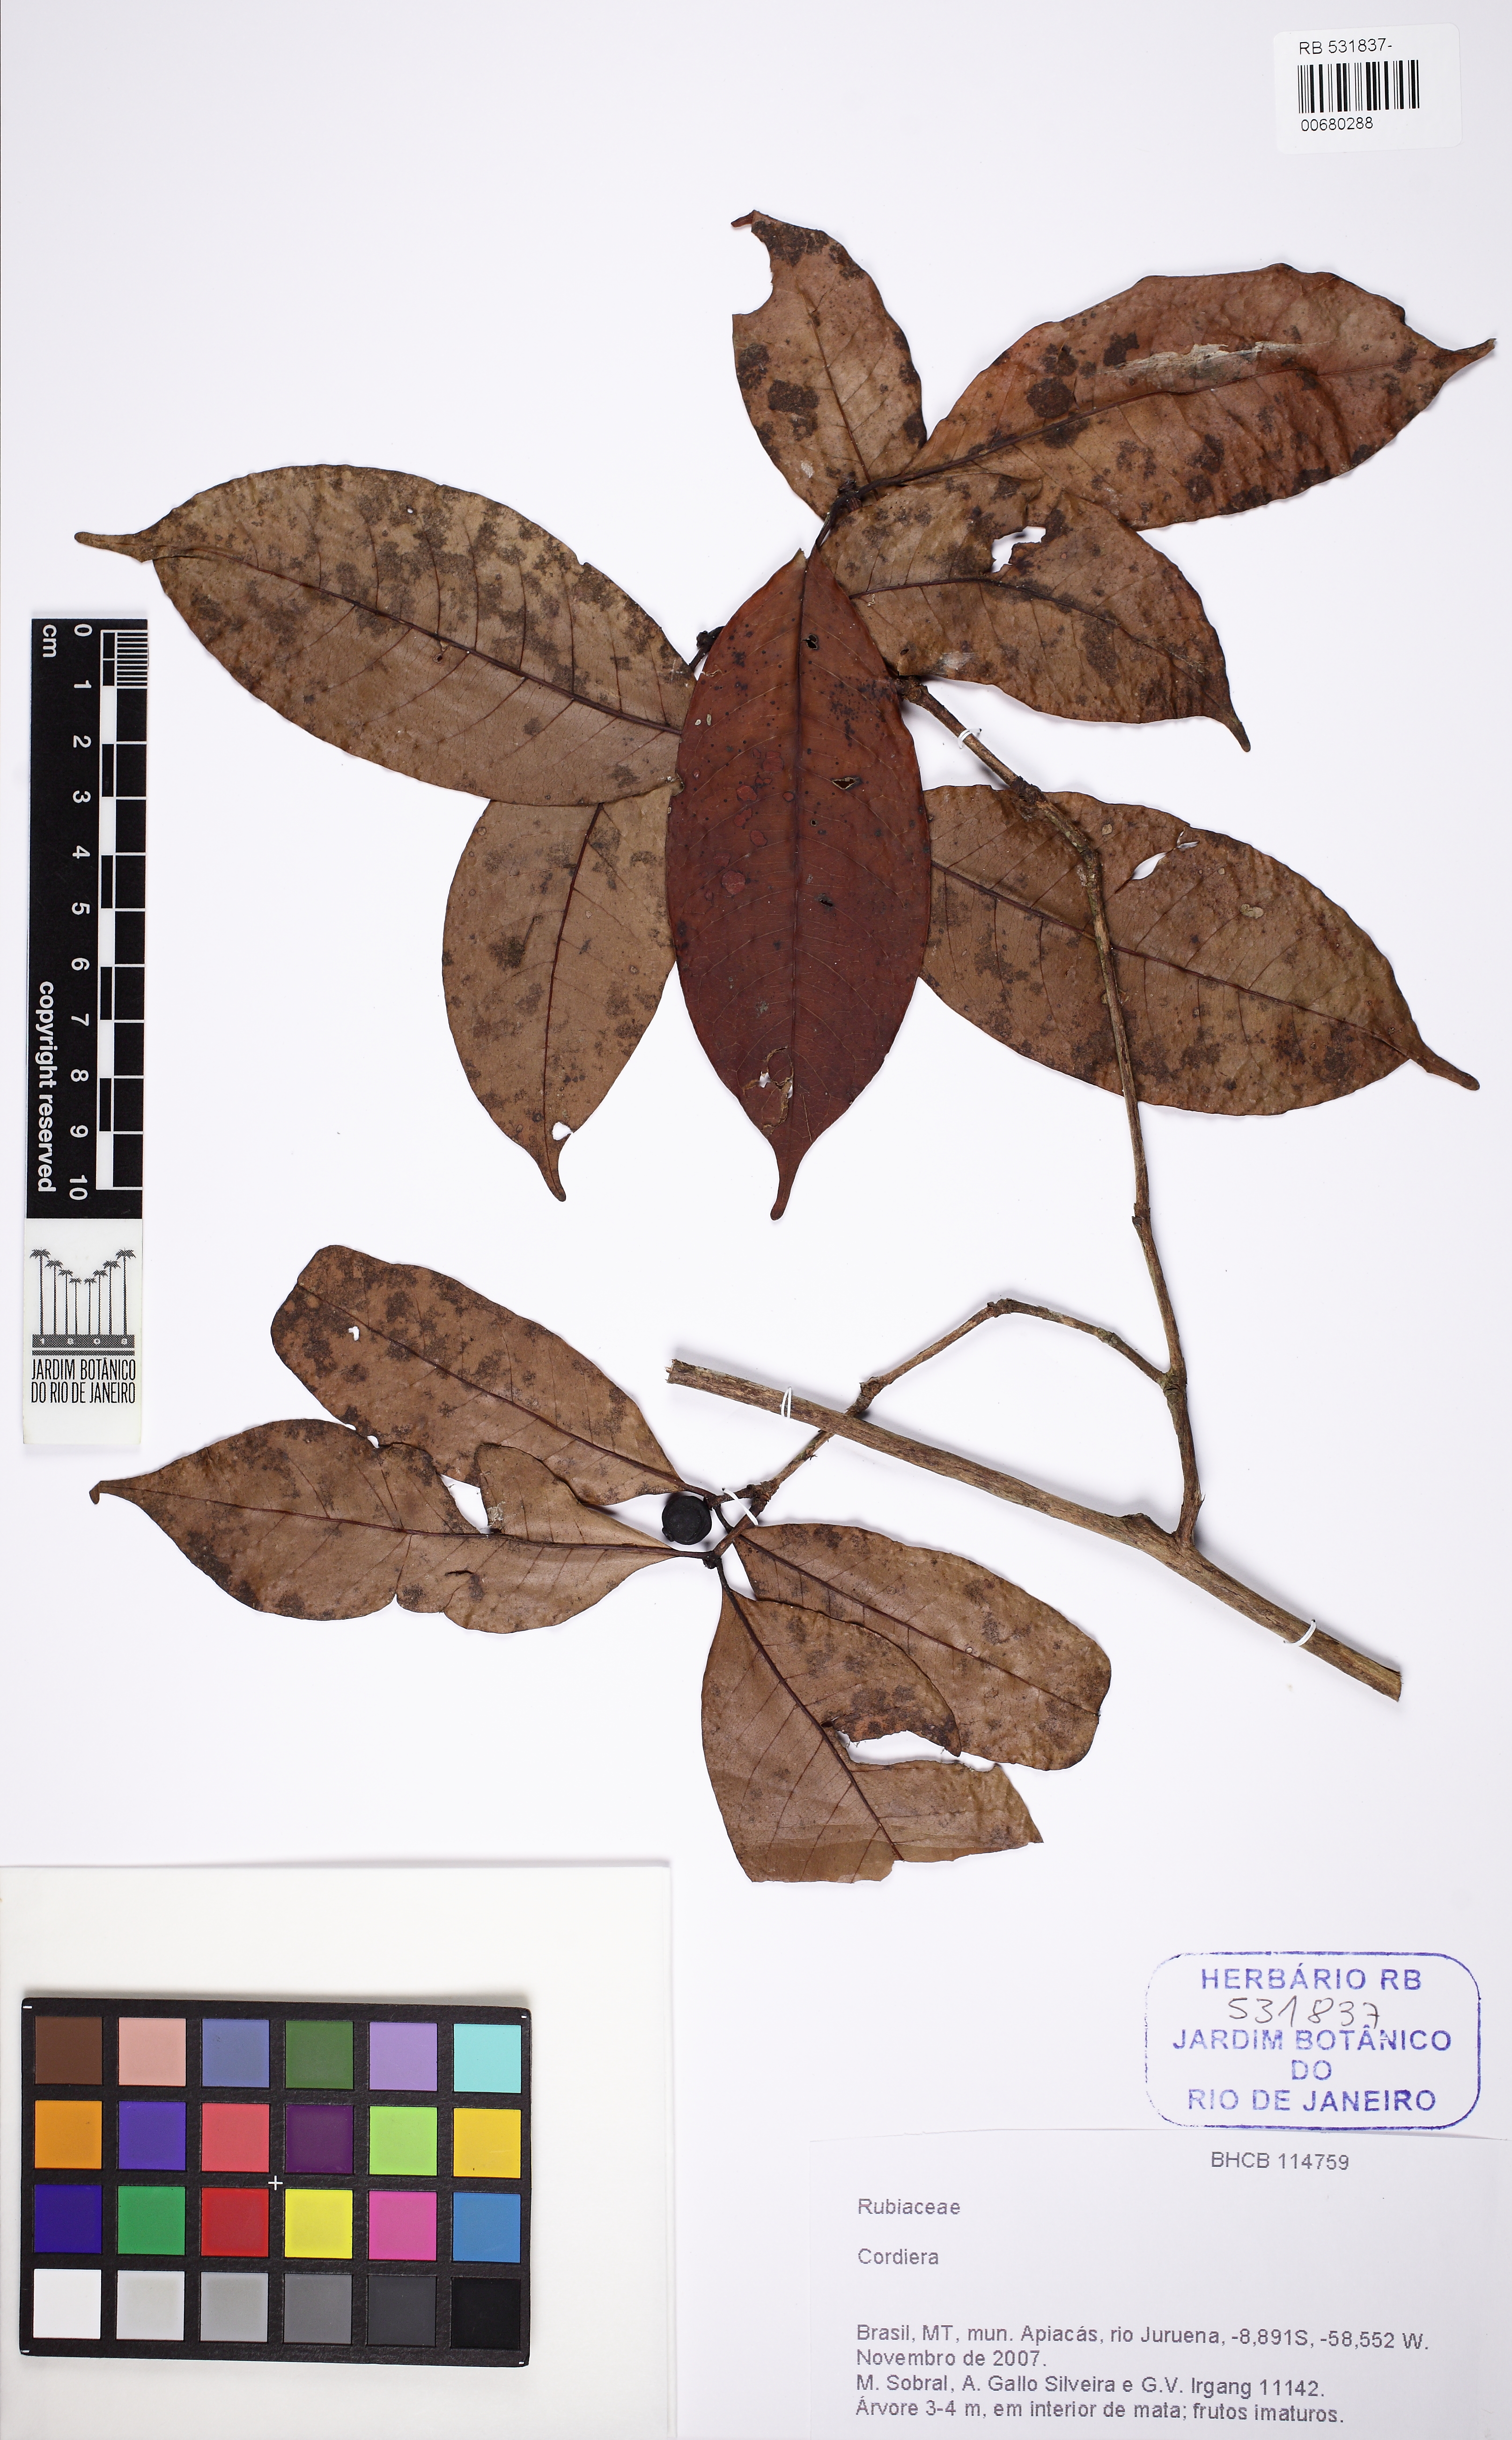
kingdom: Plantae
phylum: Tracheophyta
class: Magnoliopsida
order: Gentianales
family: Rubiaceae
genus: Cordiera
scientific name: Cordiera myrciifolia
